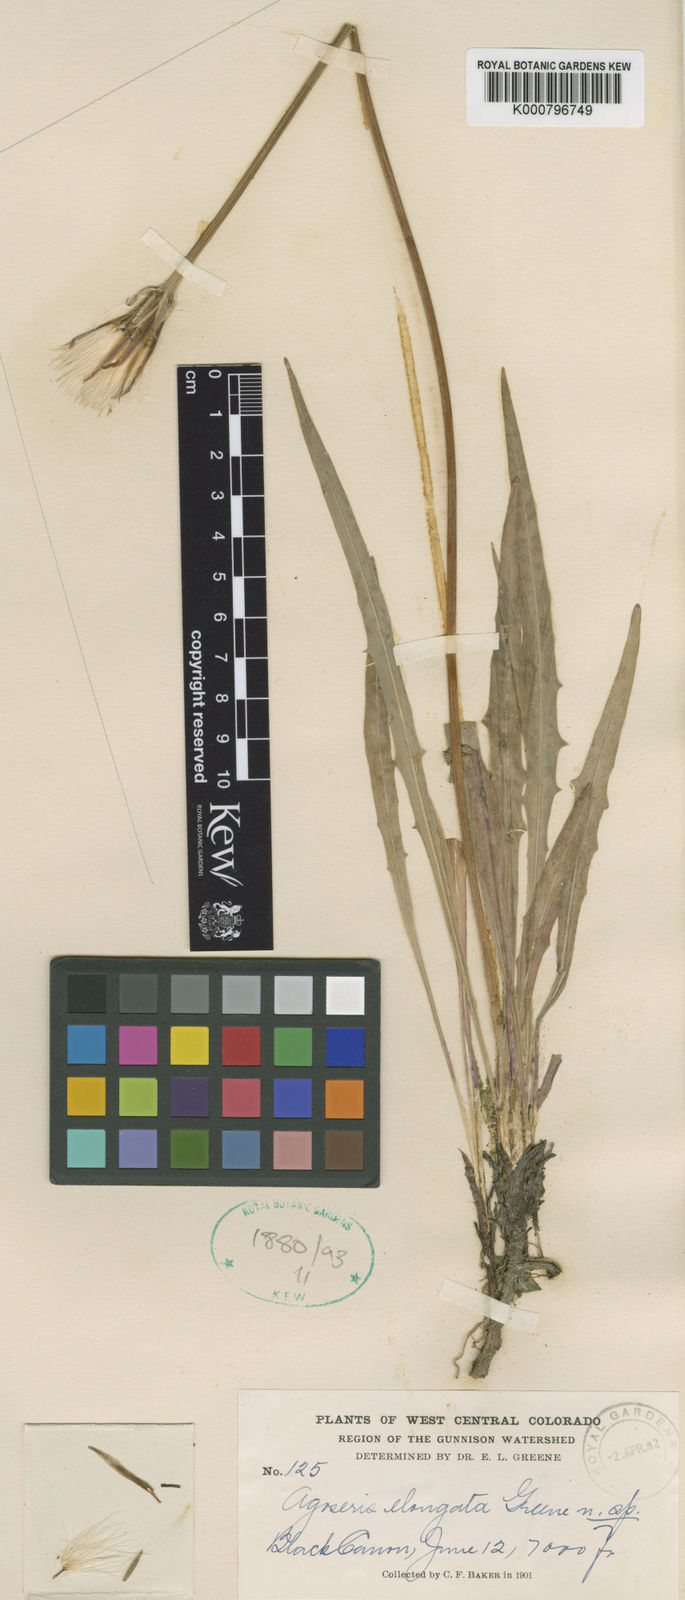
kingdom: Plantae
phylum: Tracheophyta
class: Magnoliopsida
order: Asterales
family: Asteraceae
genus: Agoseris
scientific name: Agoseris
